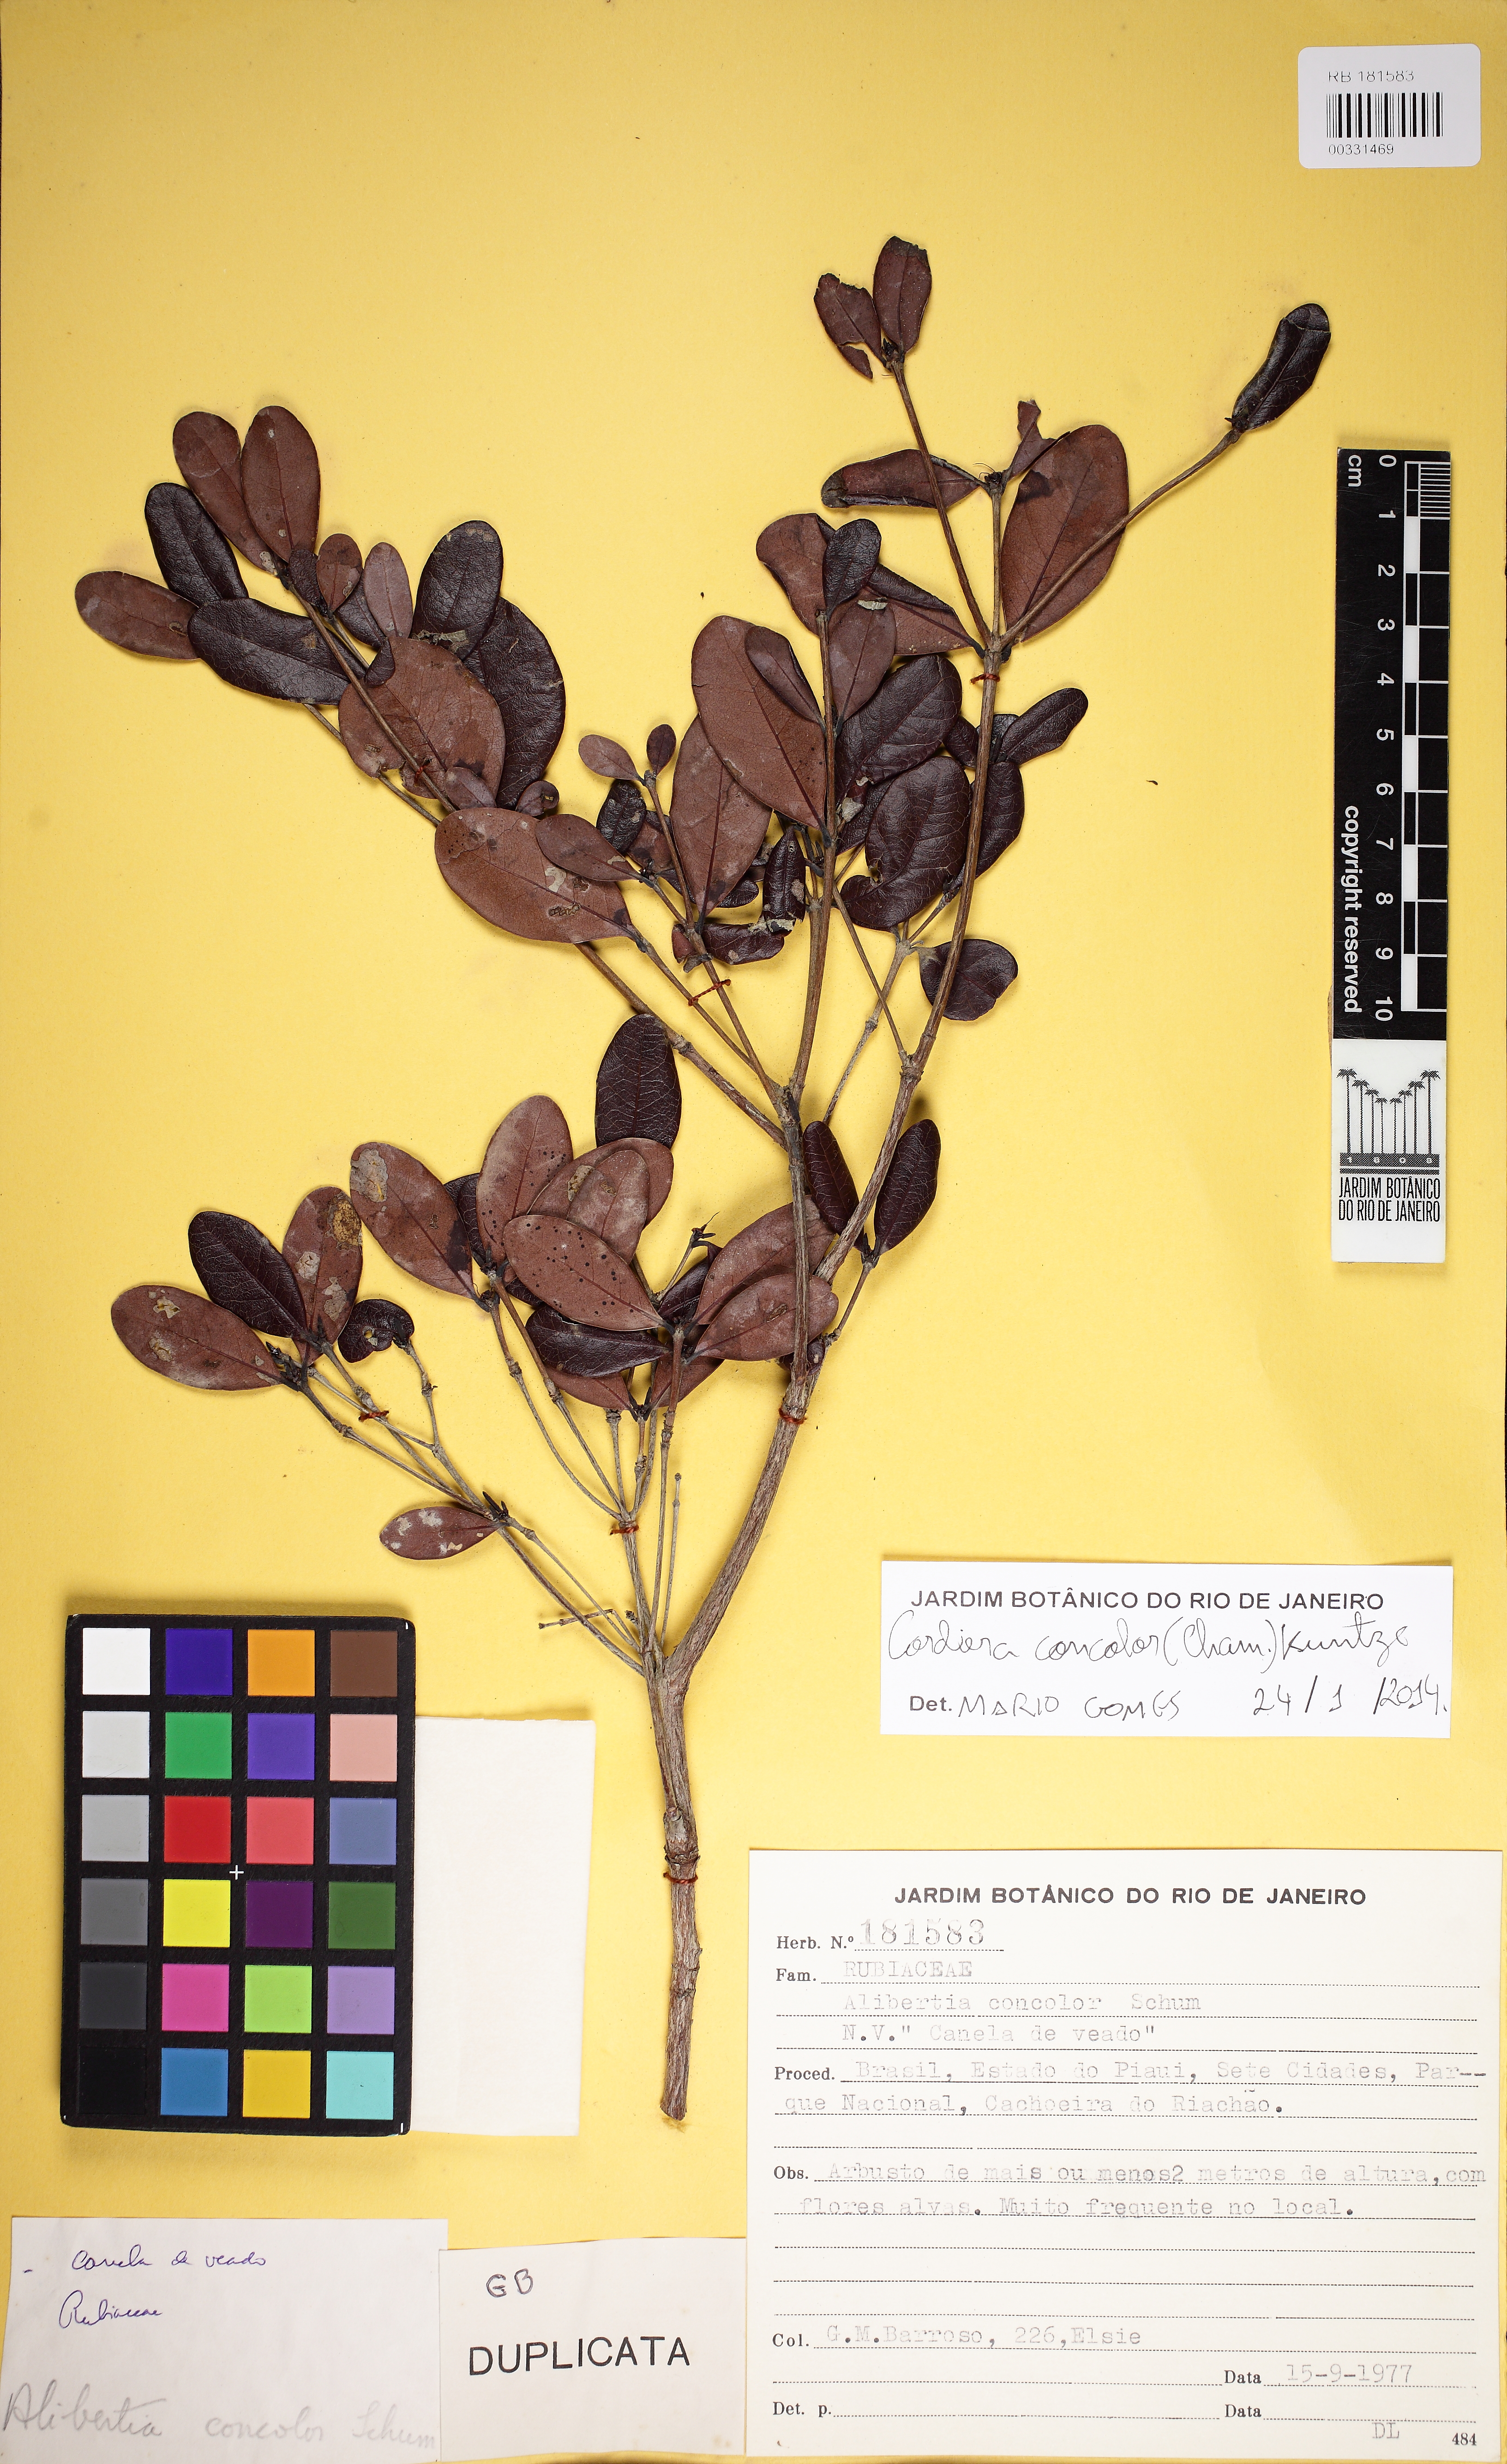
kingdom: Plantae
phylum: Tracheophyta
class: Magnoliopsida
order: Gentianales
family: Rubiaceae
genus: Cordiera
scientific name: Cordiera rigida
